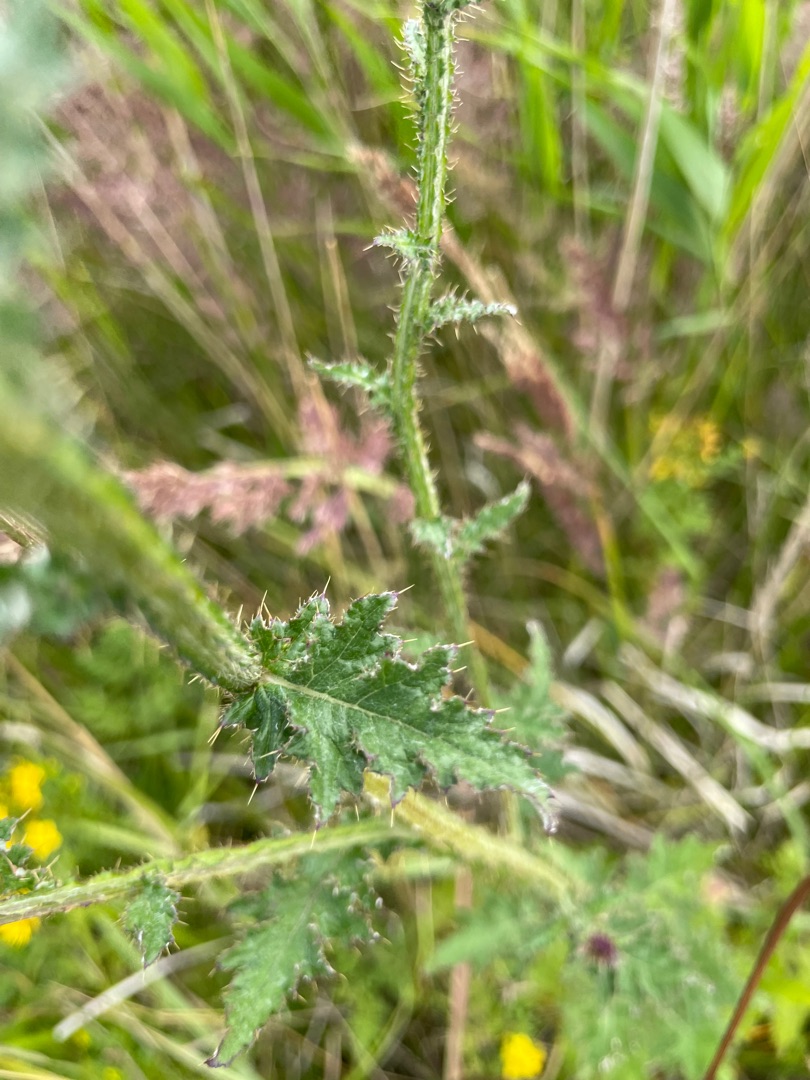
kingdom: Plantae
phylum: Tracheophyta
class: Magnoliopsida
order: Asterales
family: Asteraceae
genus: Carduus
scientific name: Carduus crispus
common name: Kruset tidsel
